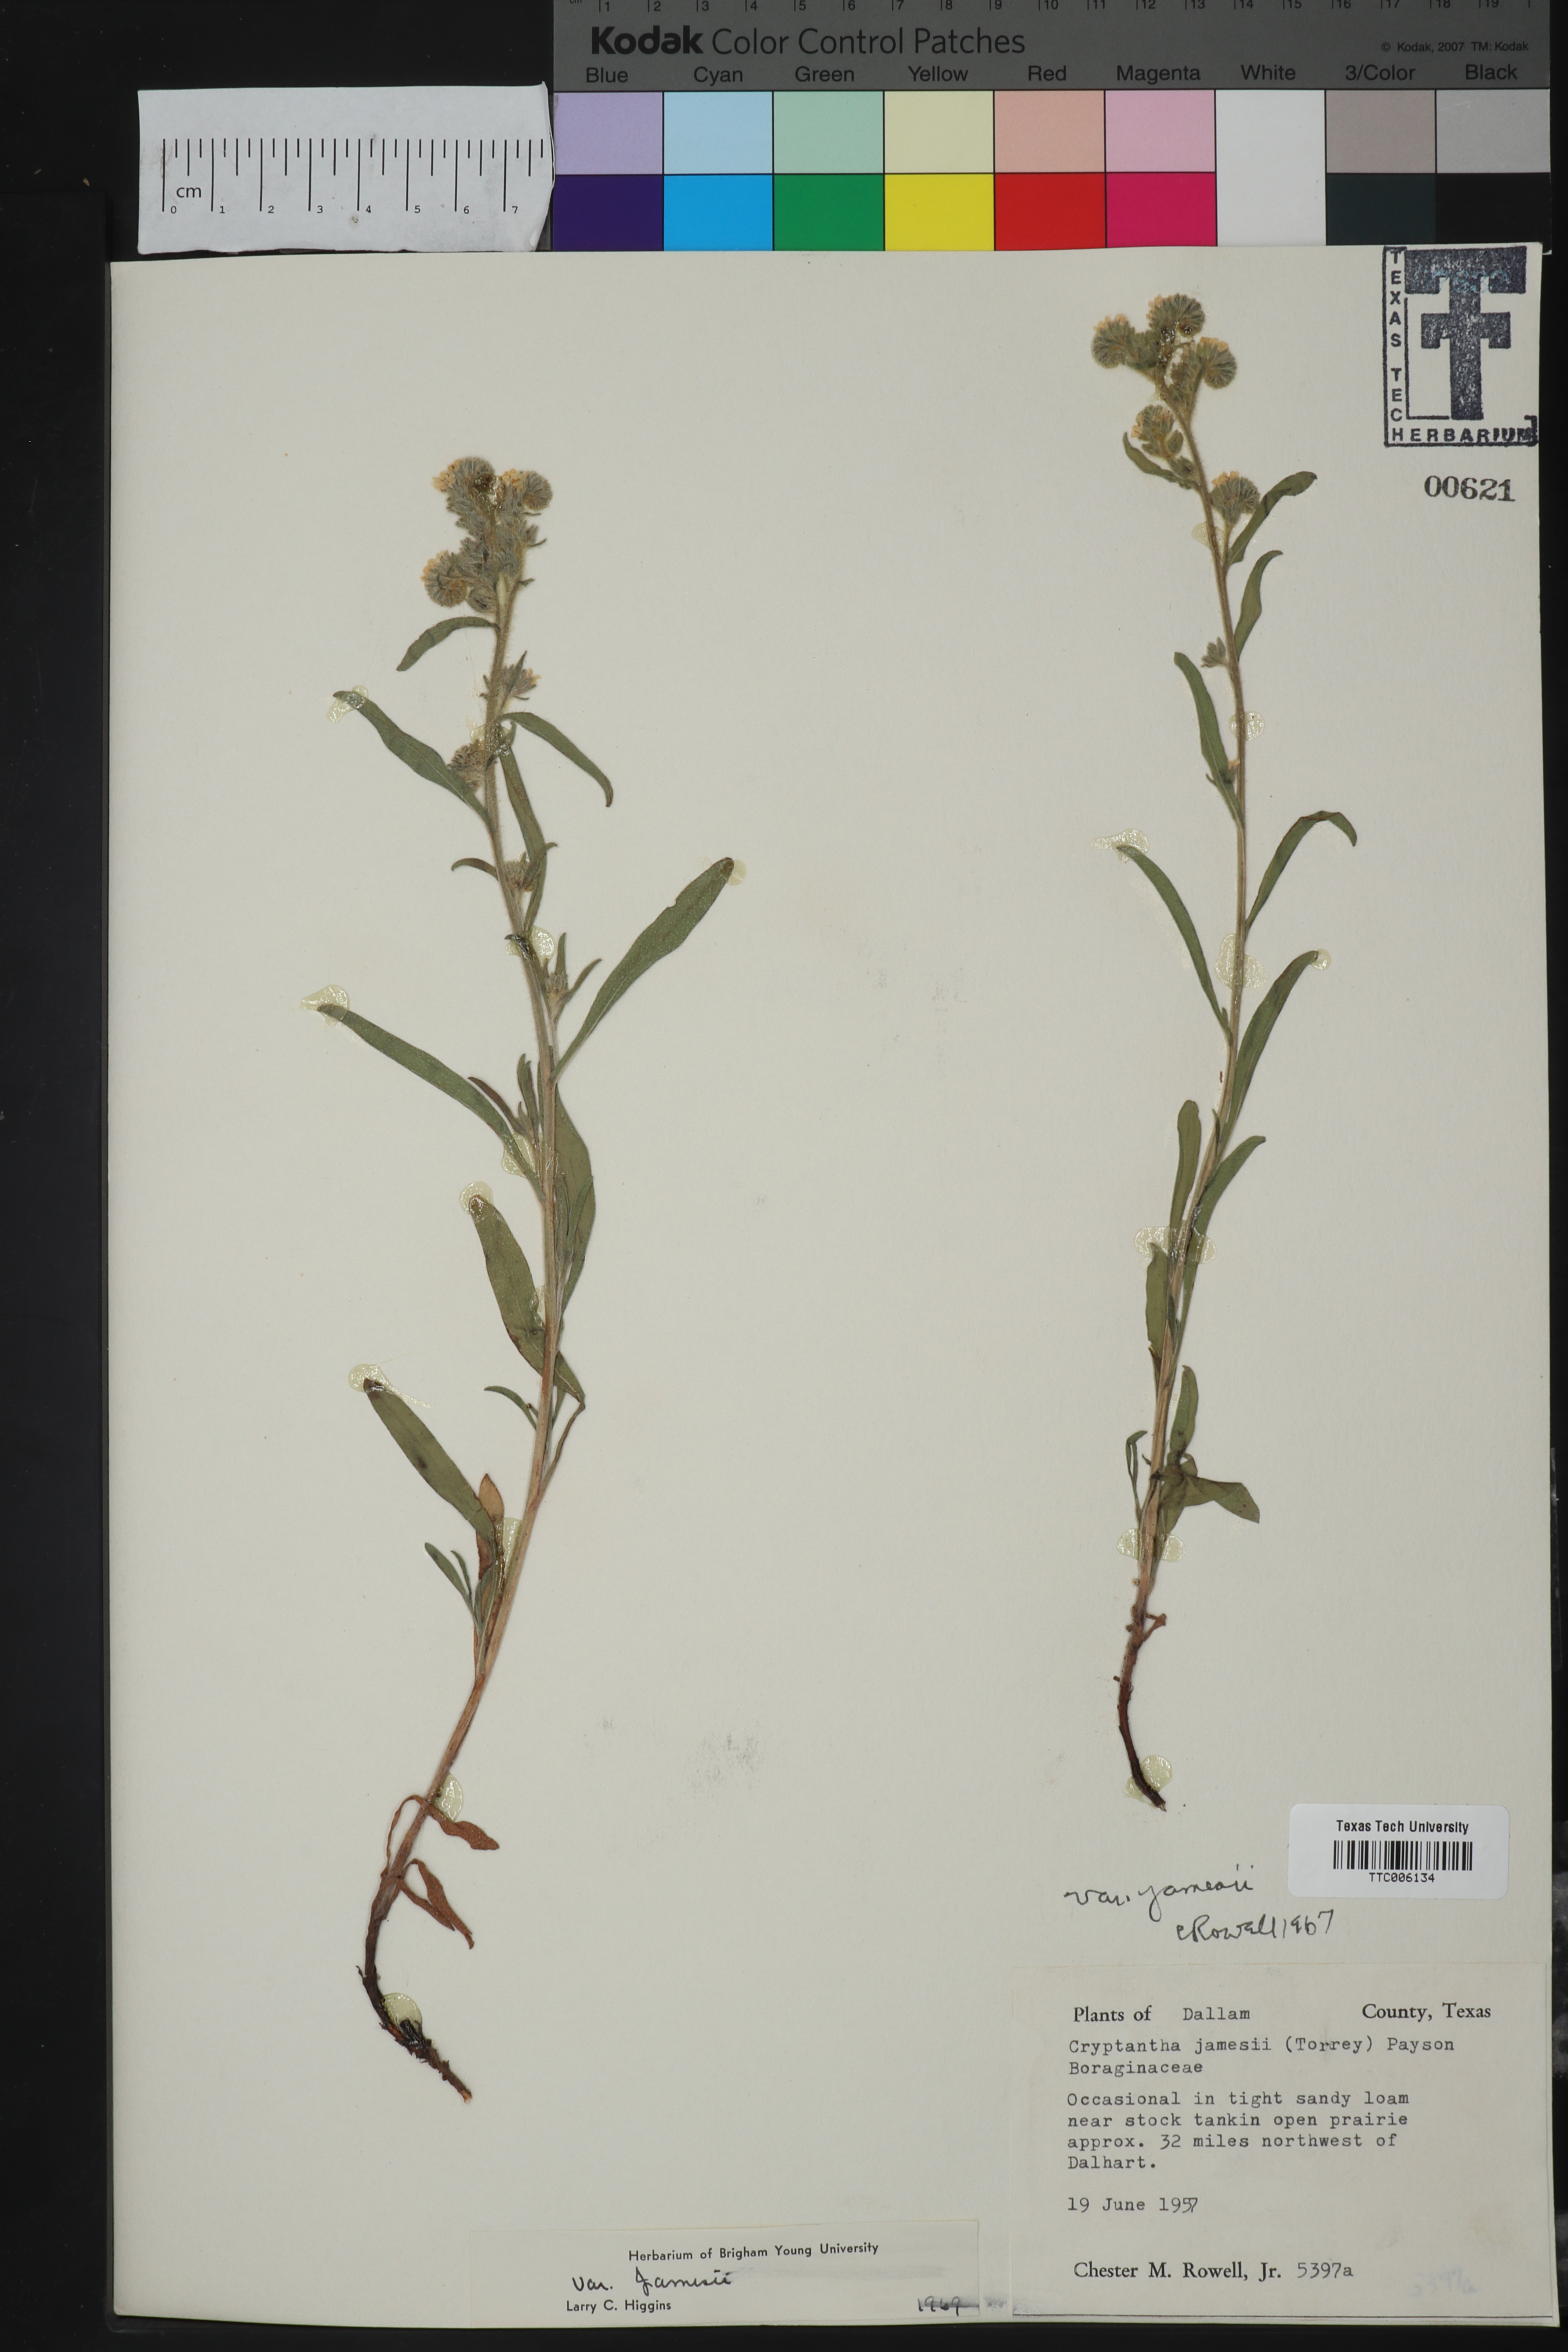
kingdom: Plantae
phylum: Tracheophyta
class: Magnoliopsida
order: Boraginales
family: Boraginaceae
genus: Oreocarya
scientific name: Oreocarya suffruticosa
